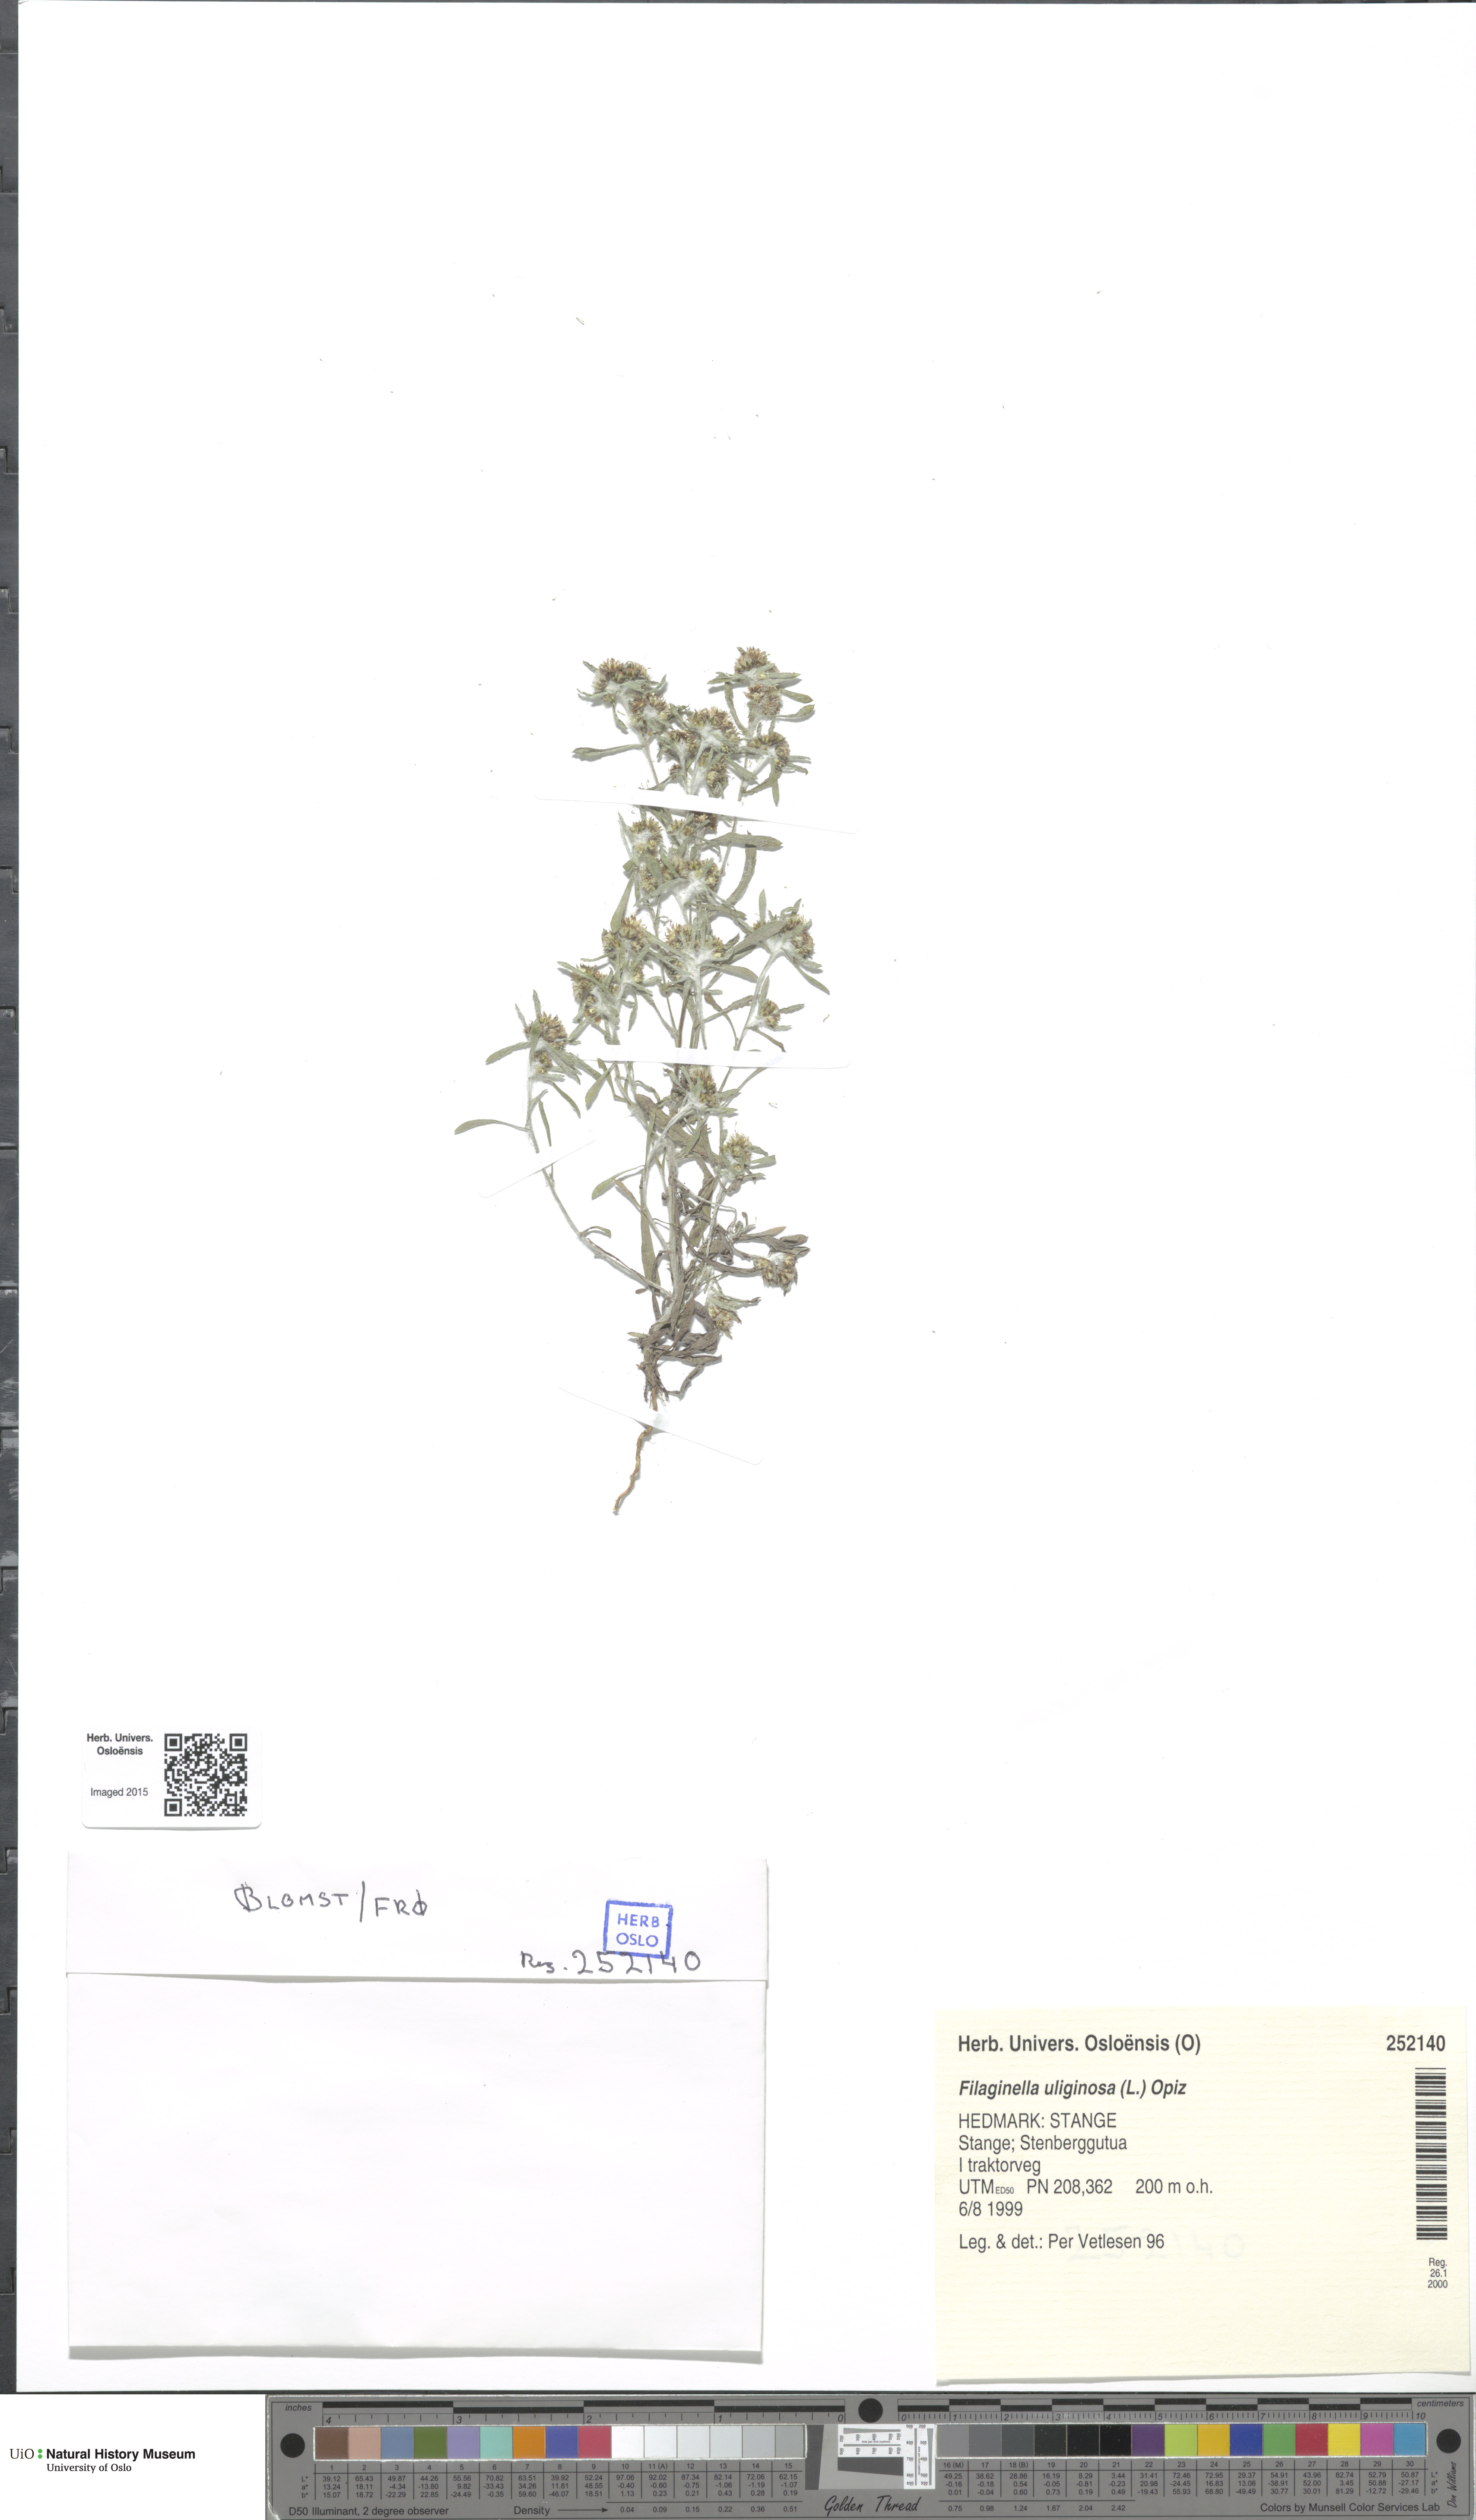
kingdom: Plantae
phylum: Tracheophyta
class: Magnoliopsida
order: Asterales
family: Asteraceae
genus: Gnaphalium
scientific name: Gnaphalium uliginosum
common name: Marsh cudweed
